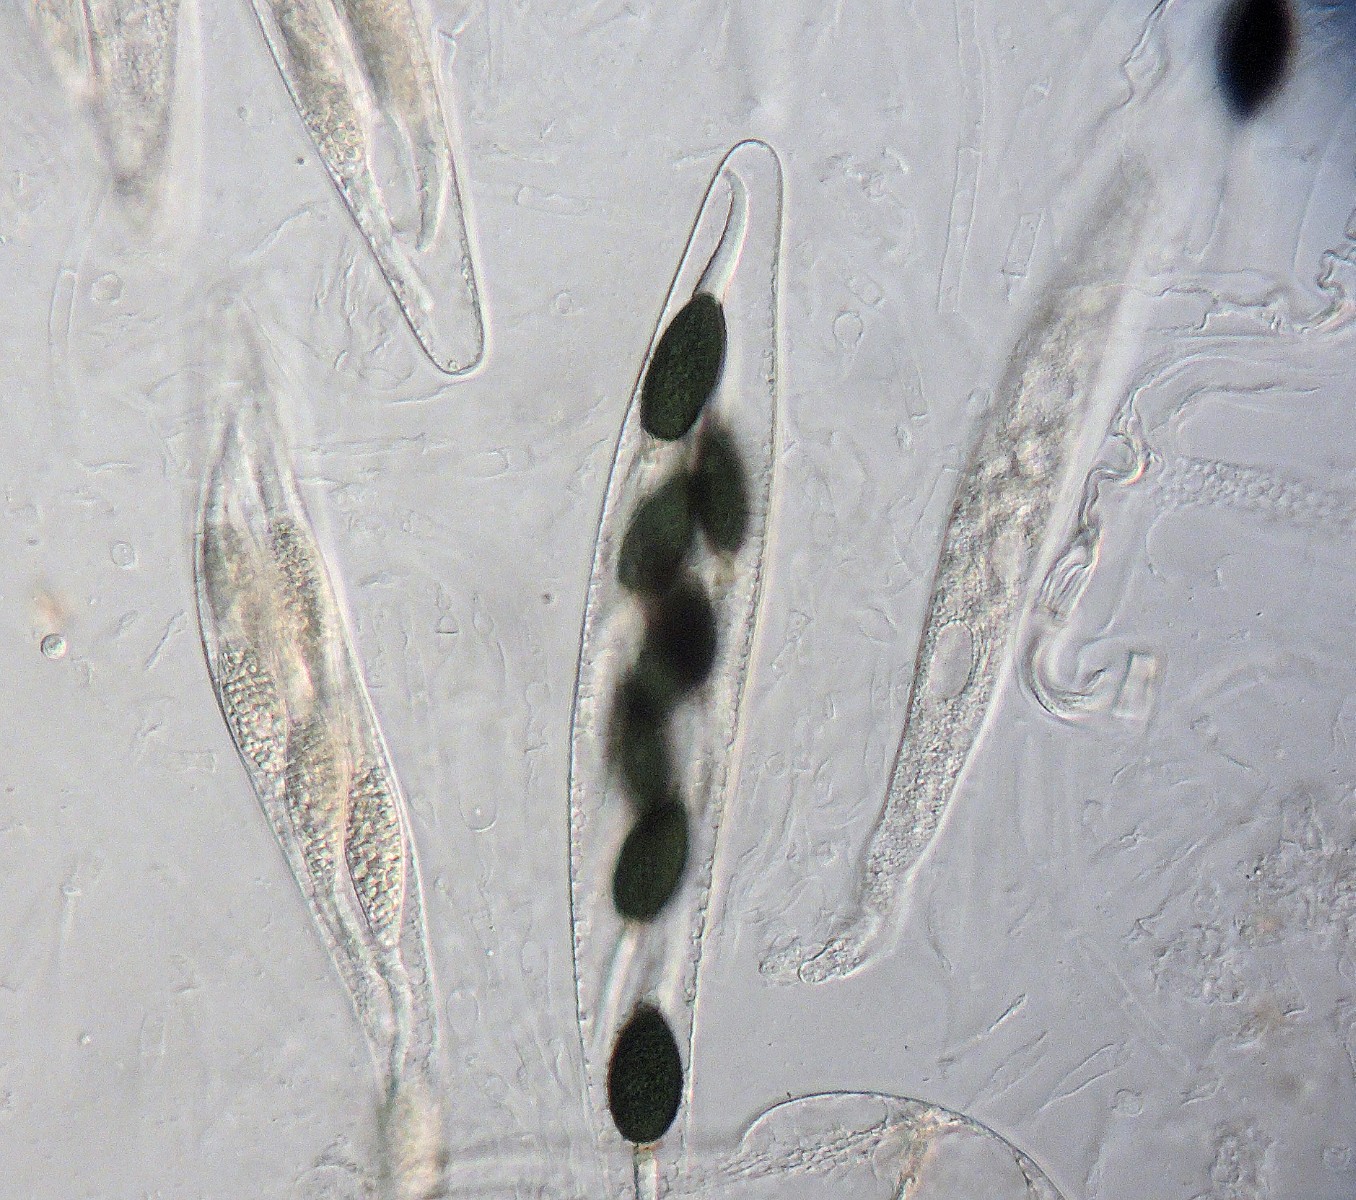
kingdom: Fungi
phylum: Ascomycota
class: Sordariomycetes
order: Sordariales
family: Podosporaceae
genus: Podospora
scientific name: Podospora appendiculata
